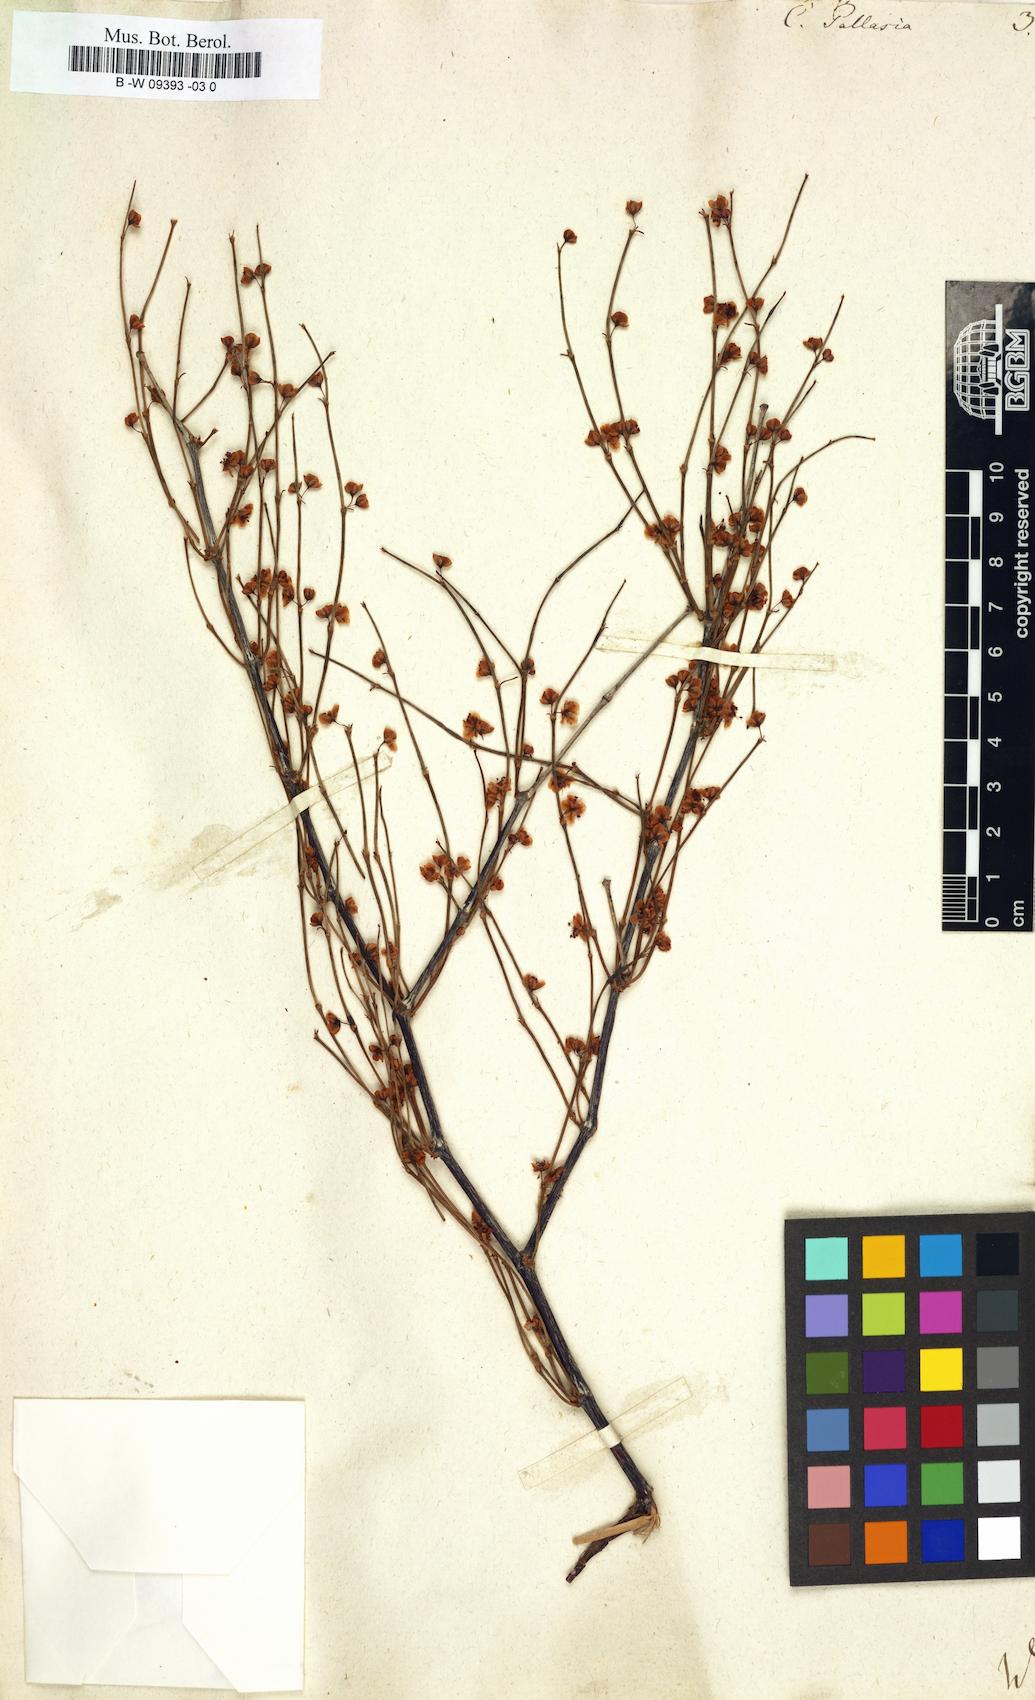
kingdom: Plantae
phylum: Tracheophyta
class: Magnoliopsida
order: Caryophyllales
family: Polygonaceae
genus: Calligonum
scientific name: Calligonum aphyllum
